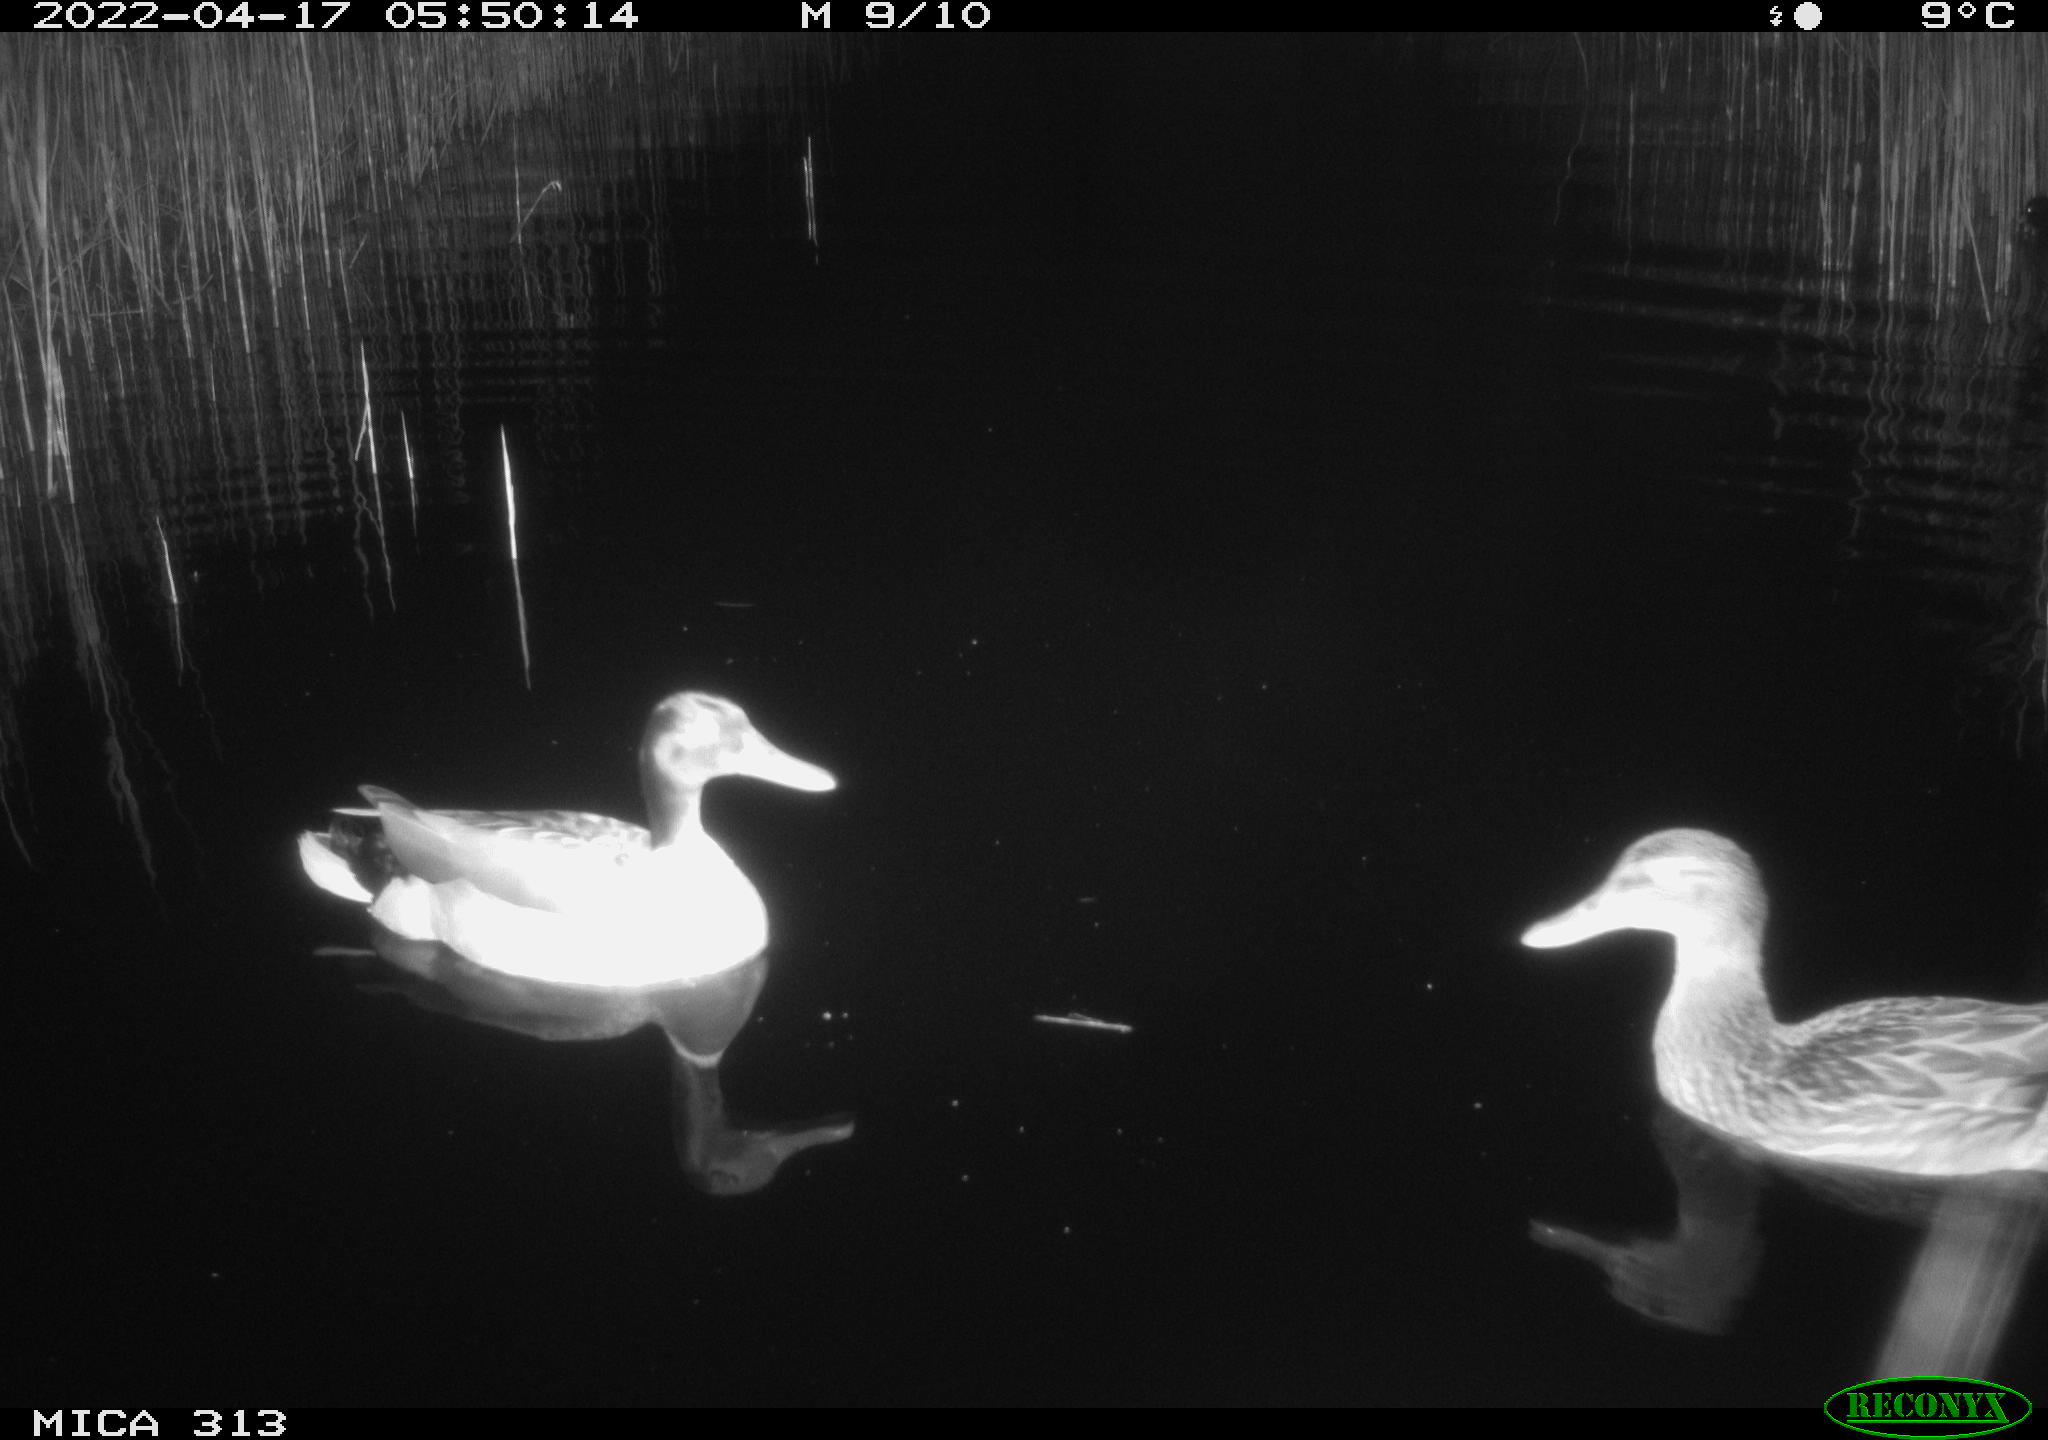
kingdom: Animalia
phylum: Chordata
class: Aves
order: Gruiformes
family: Rallidae
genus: Gallinula
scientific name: Gallinula chloropus
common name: Common moorhen
